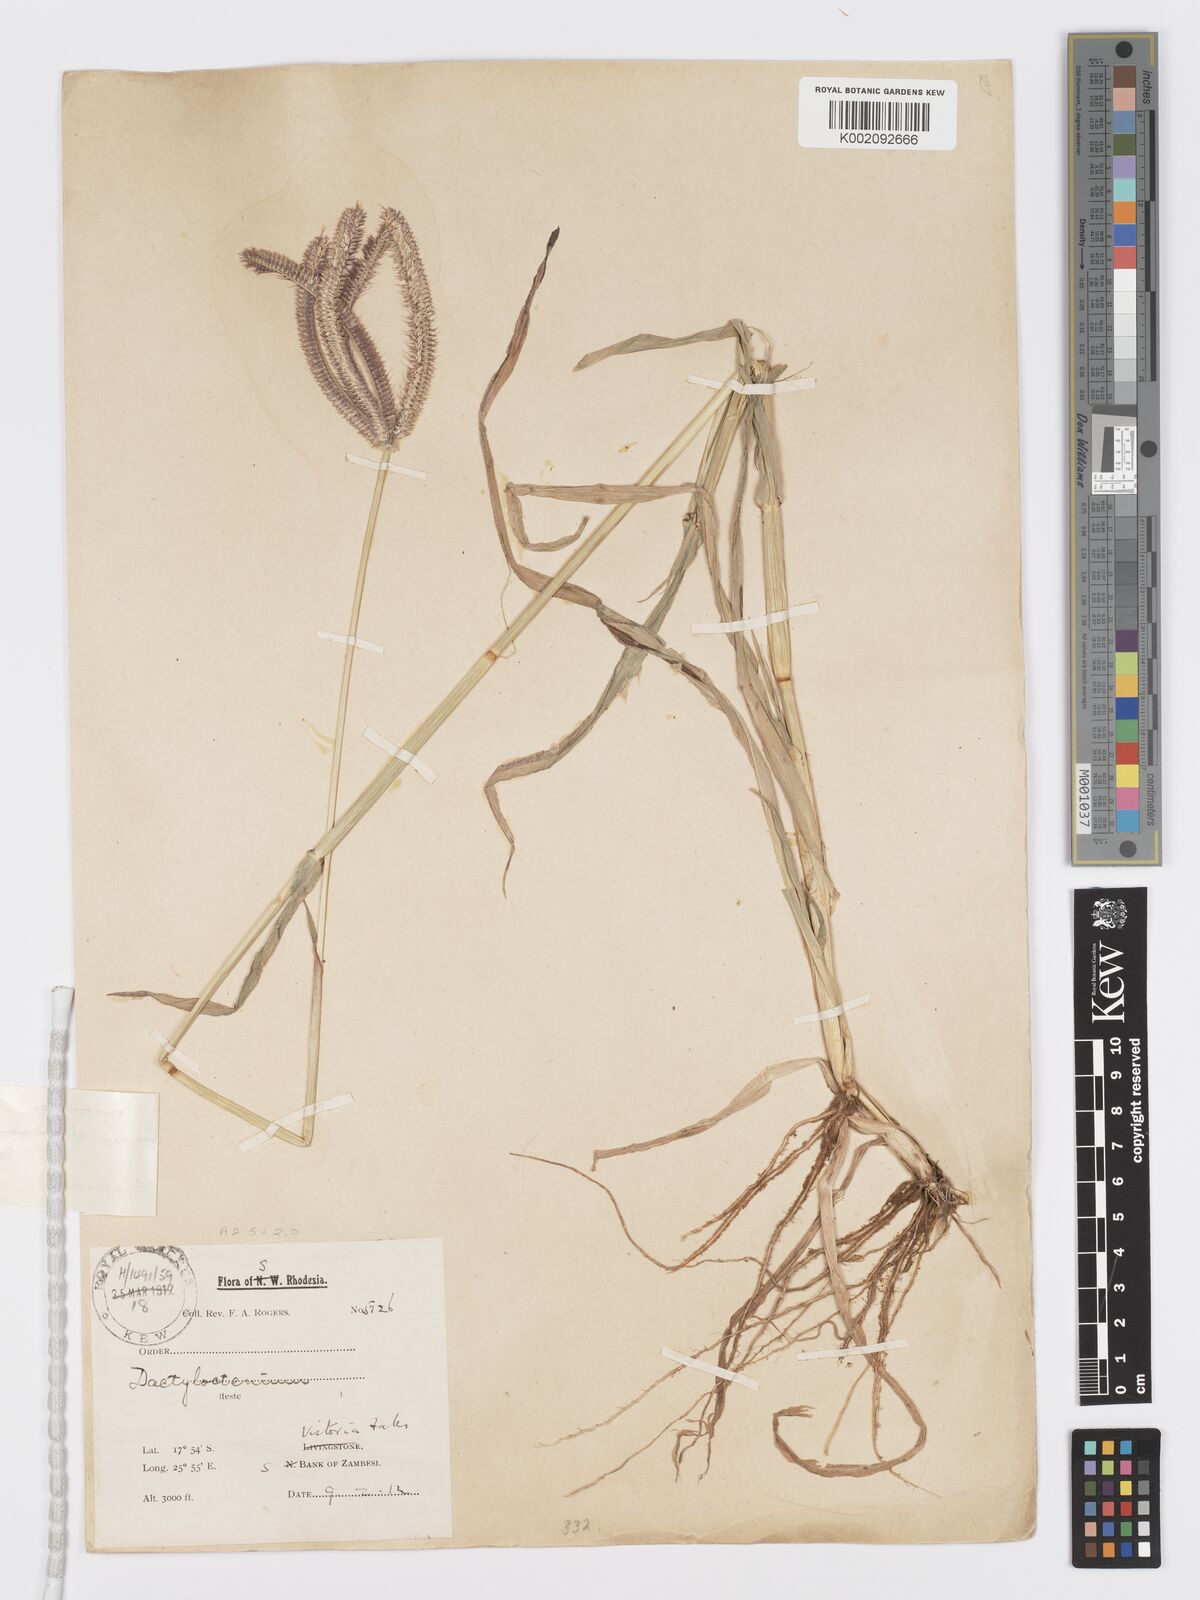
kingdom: Plantae
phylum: Tracheophyta
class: Liliopsida
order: Poales
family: Poaceae
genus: Dactyloctenium
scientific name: Dactyloctenium giganteum
